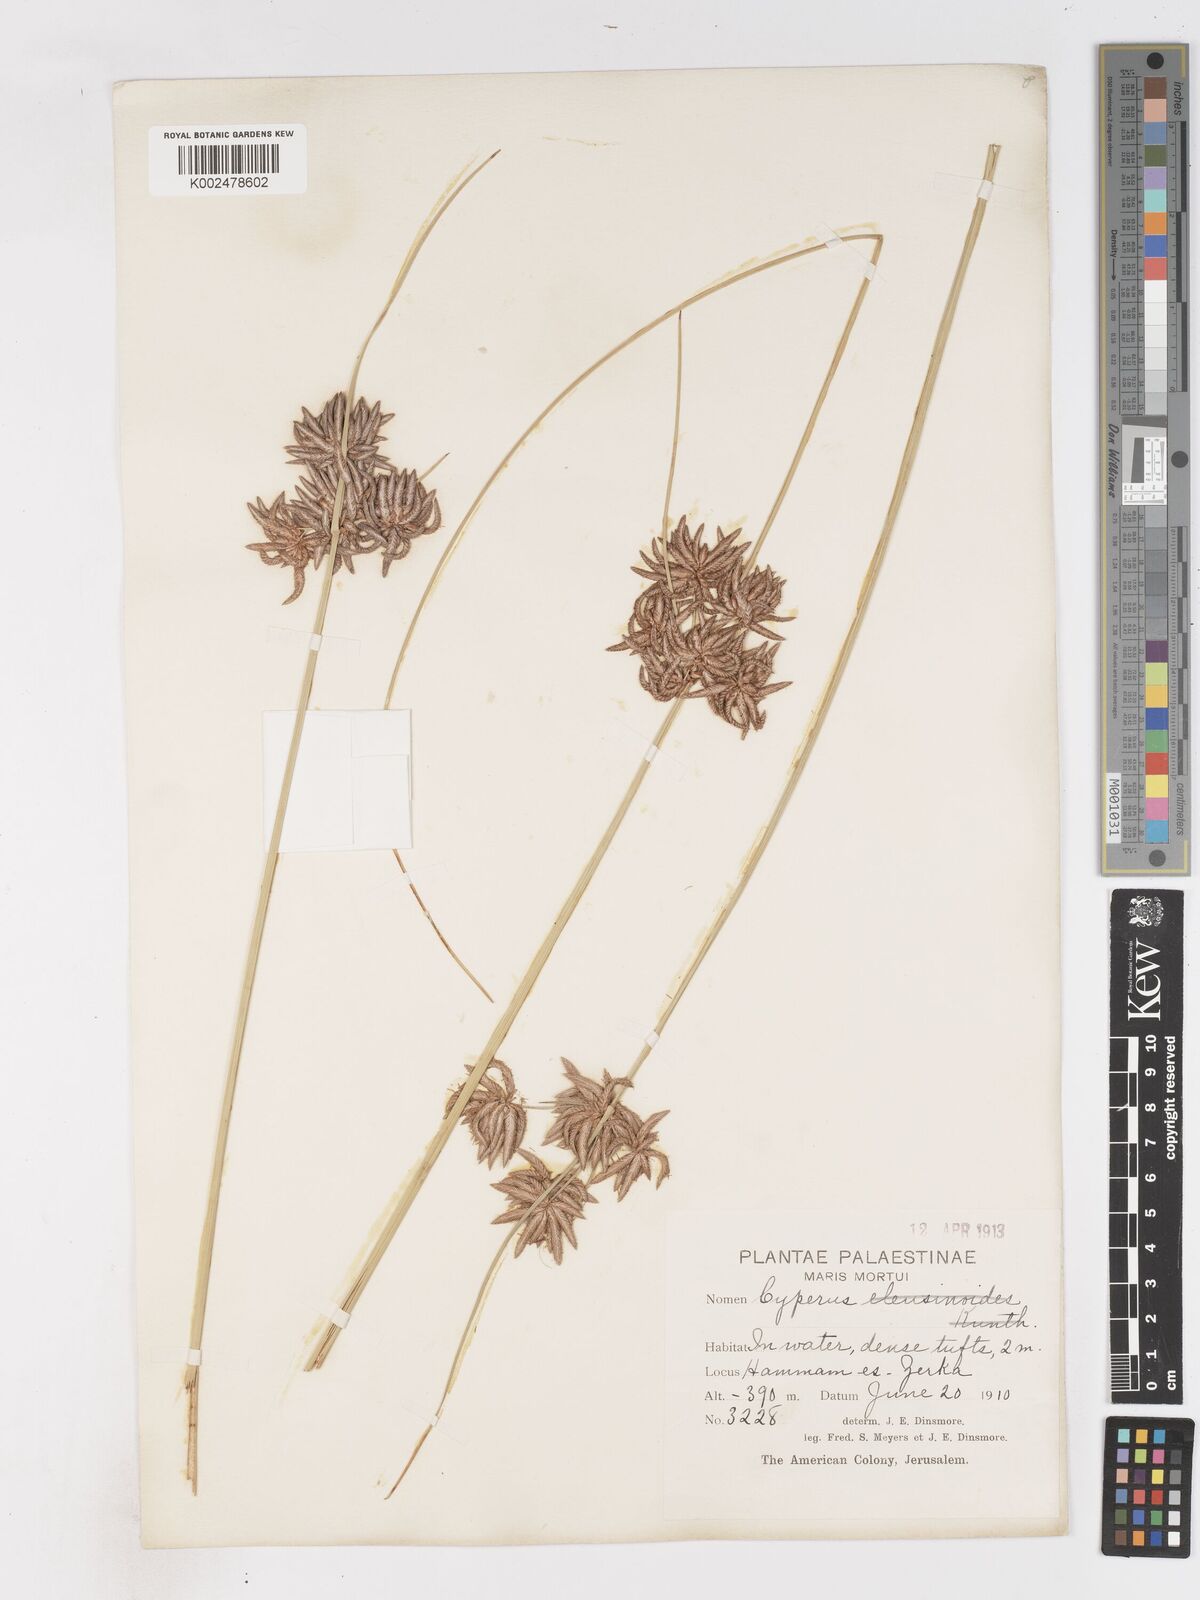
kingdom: Plantae
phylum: Tracheophyta
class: Liliopsida
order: Poales
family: Cyperaceae
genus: Cyperus
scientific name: Cyperus conglomeratus
